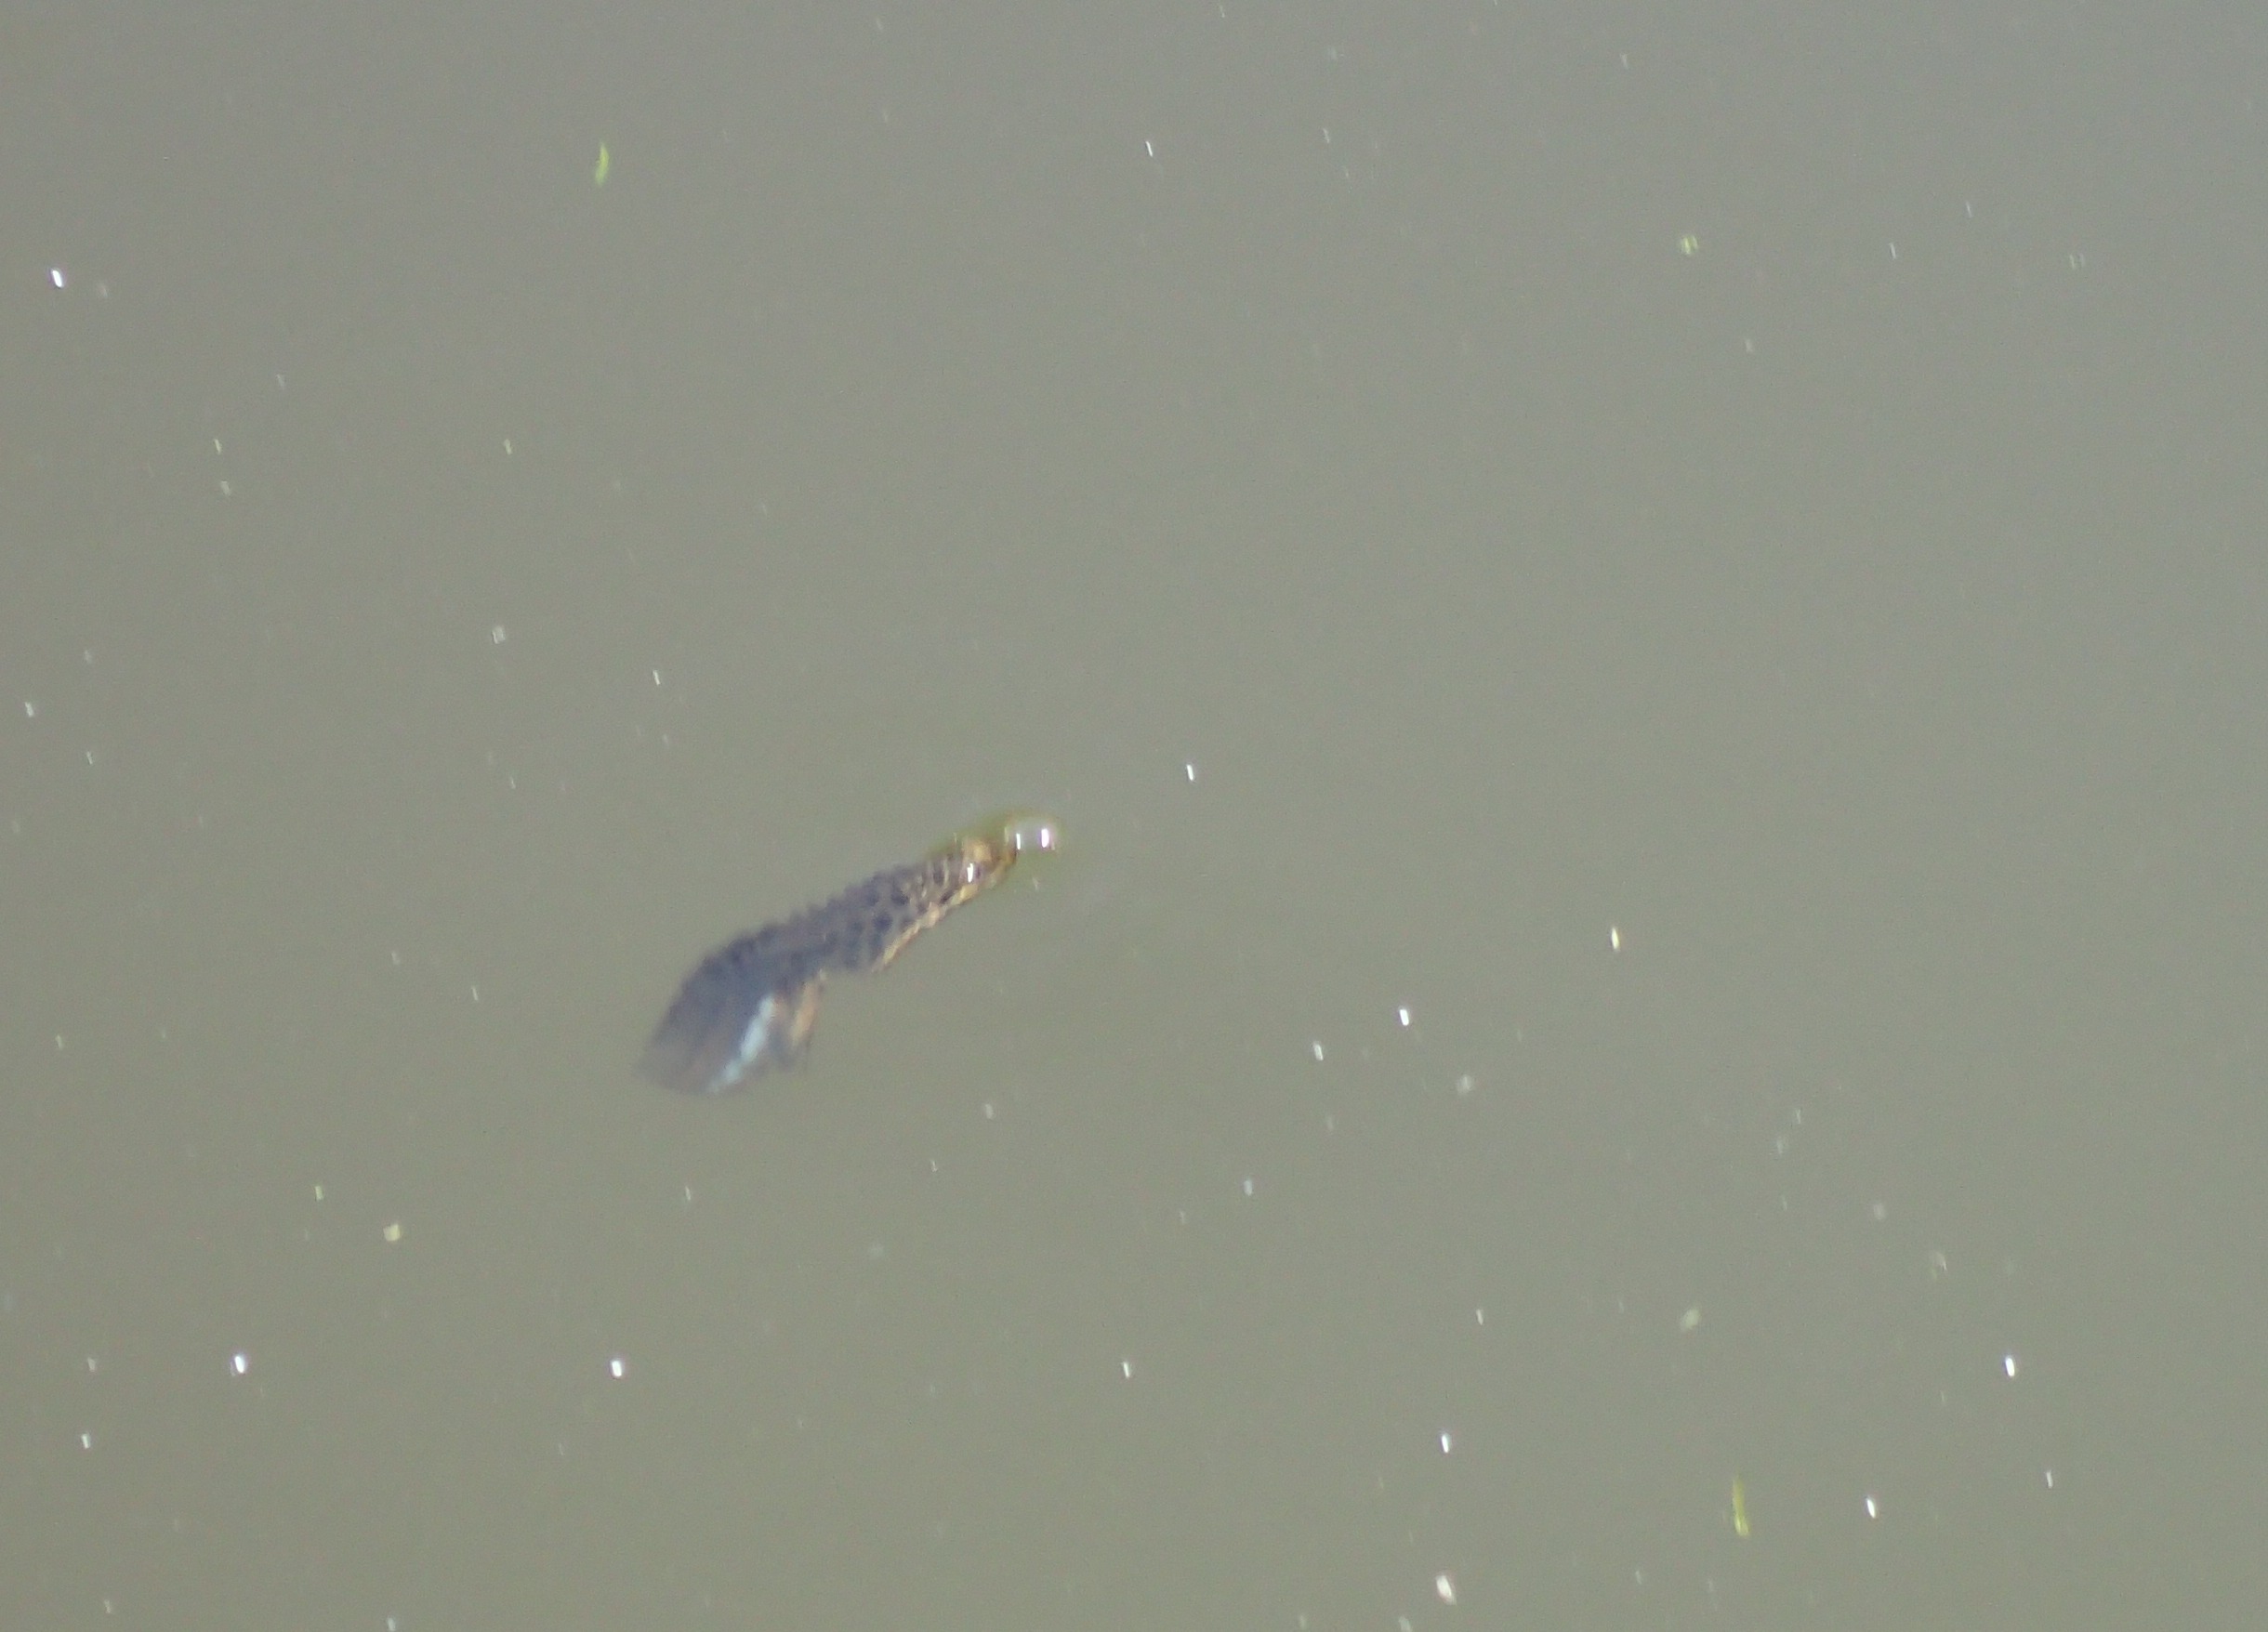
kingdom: Animalia
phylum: Chordata
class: Amphibia
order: Caudata
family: Salamandridae
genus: Lissotriton
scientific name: Lissotriton vulgaris
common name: Lille vandsalamander
